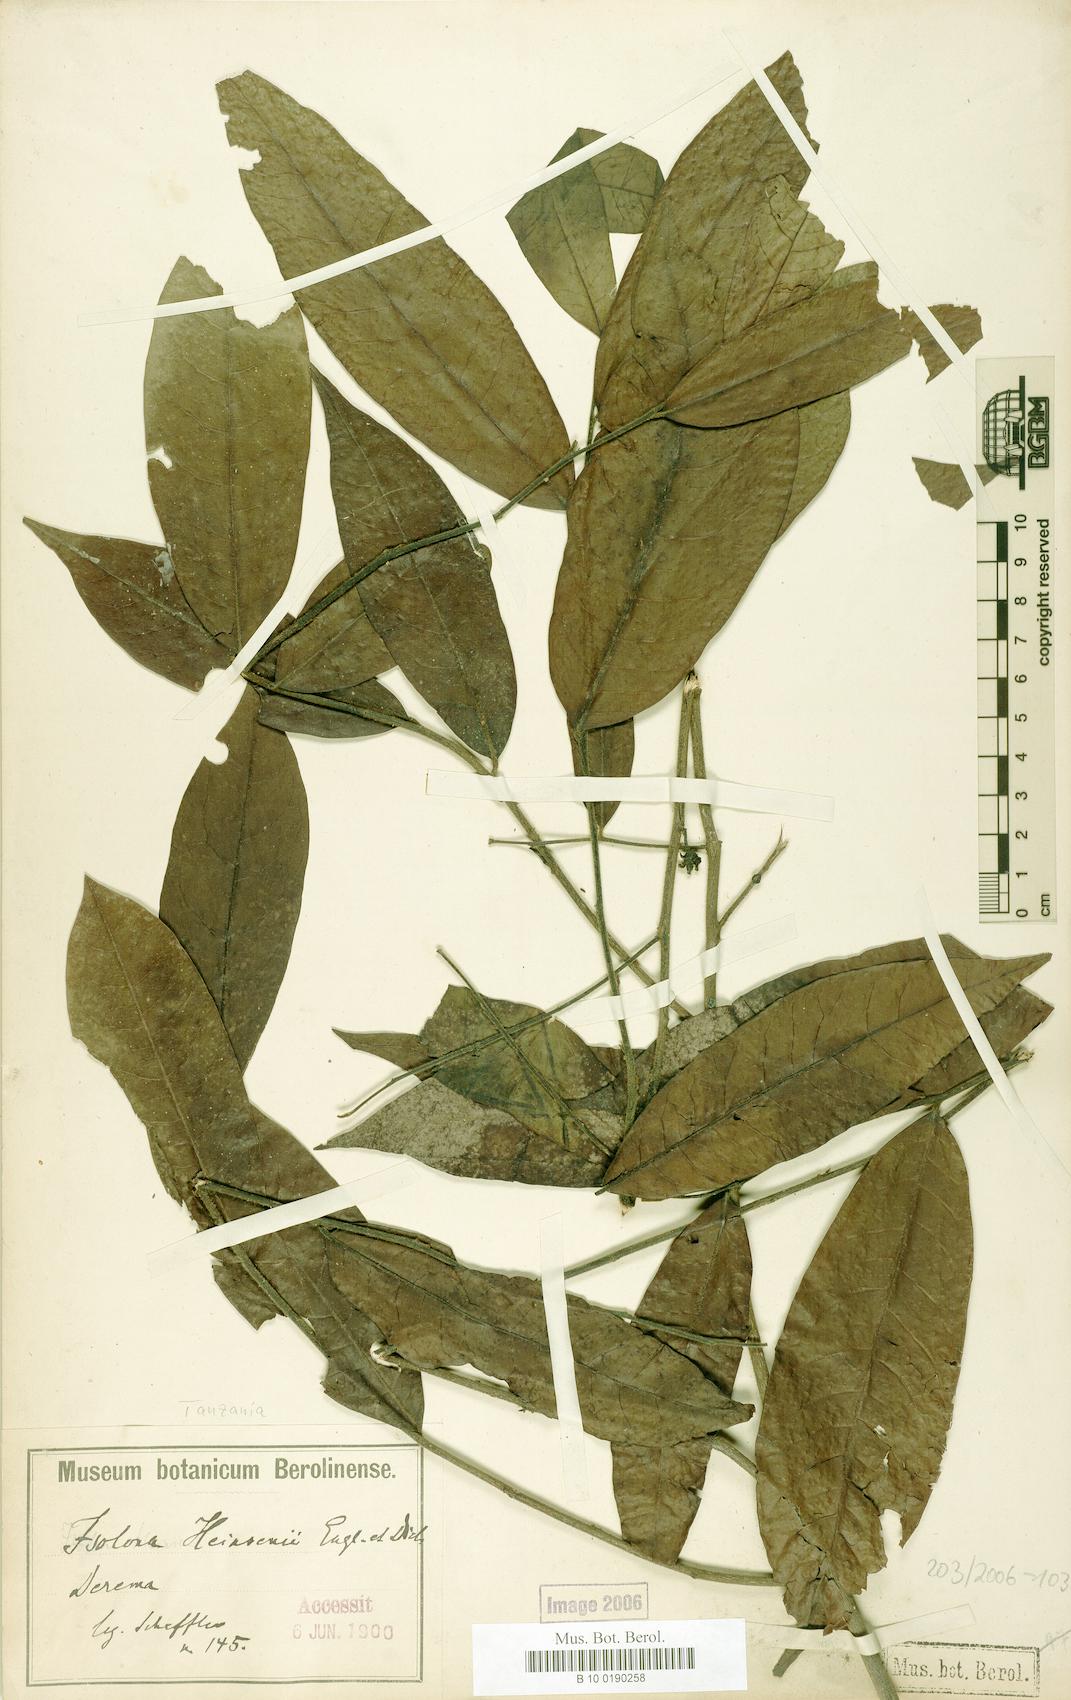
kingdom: Plantae
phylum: Tracheophyta
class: Magnoliopsida
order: Magnoliales
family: Annonaceae
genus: Isolona
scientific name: Isolona heinsenii
